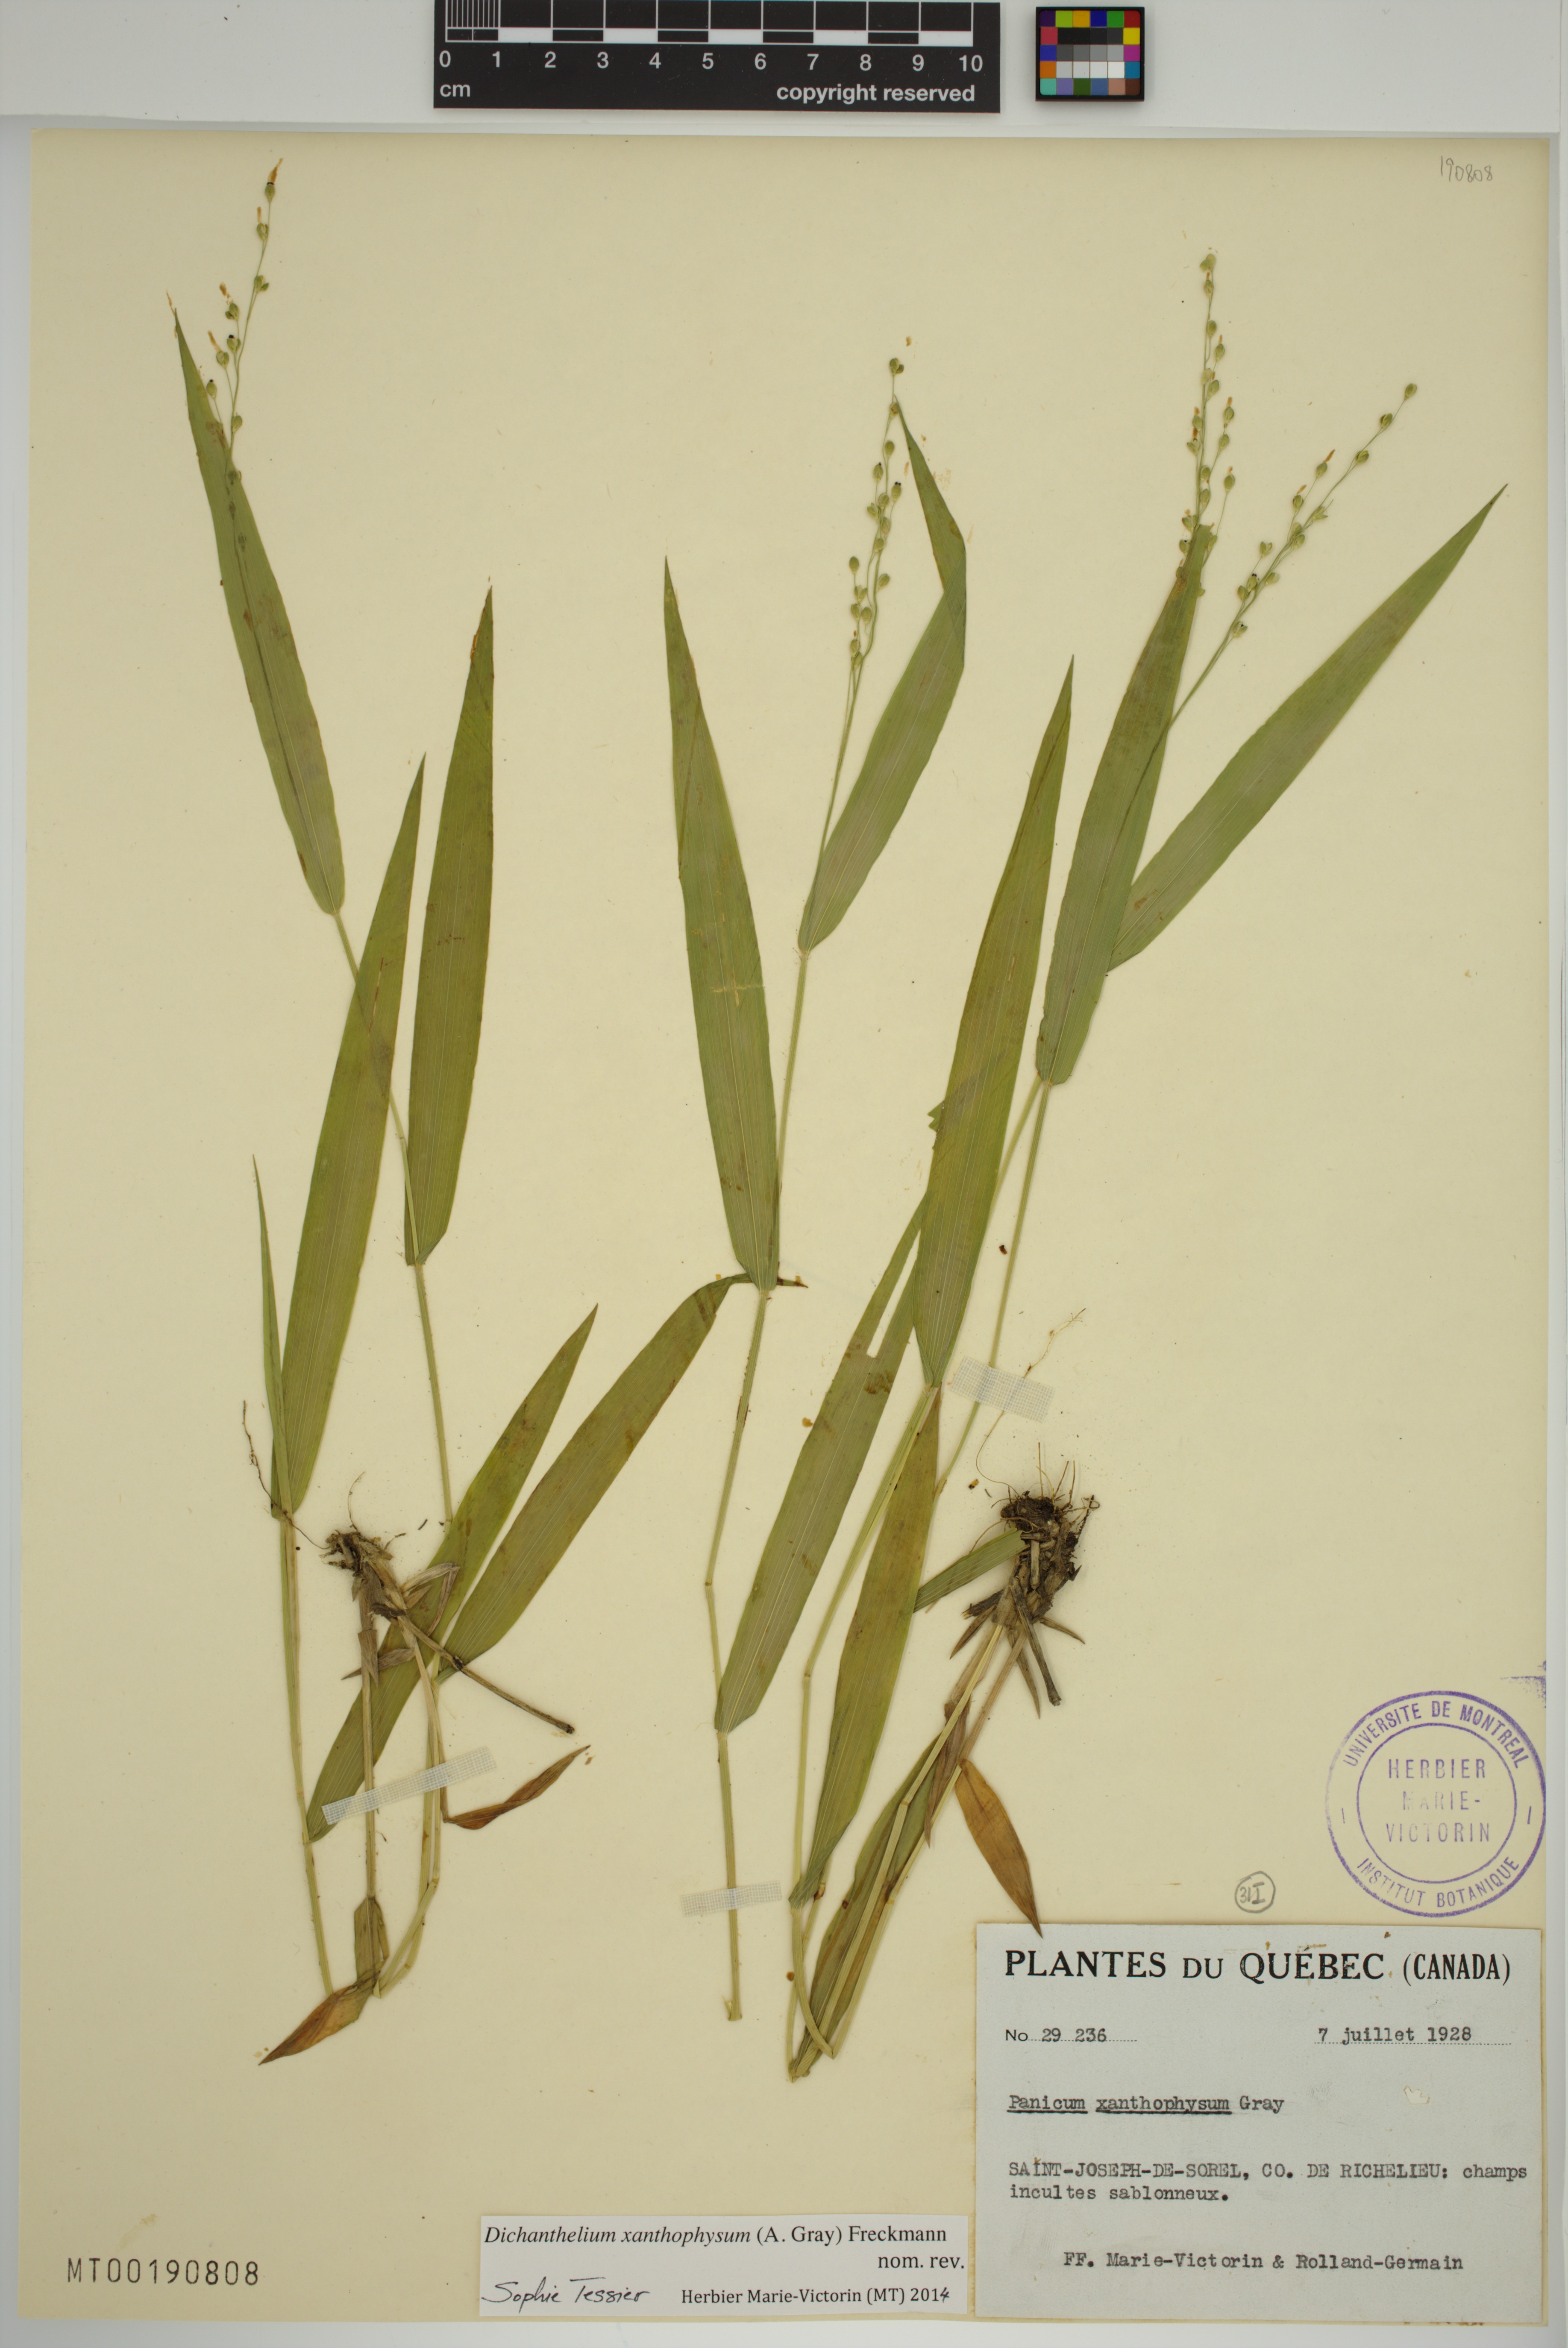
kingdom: Plantae
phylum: Tracheophyta
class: Liliopsida
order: Poales
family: Poaceae
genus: Dichanthelium
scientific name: Dichanthelium xanthophysum
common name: Pale panicgrass
